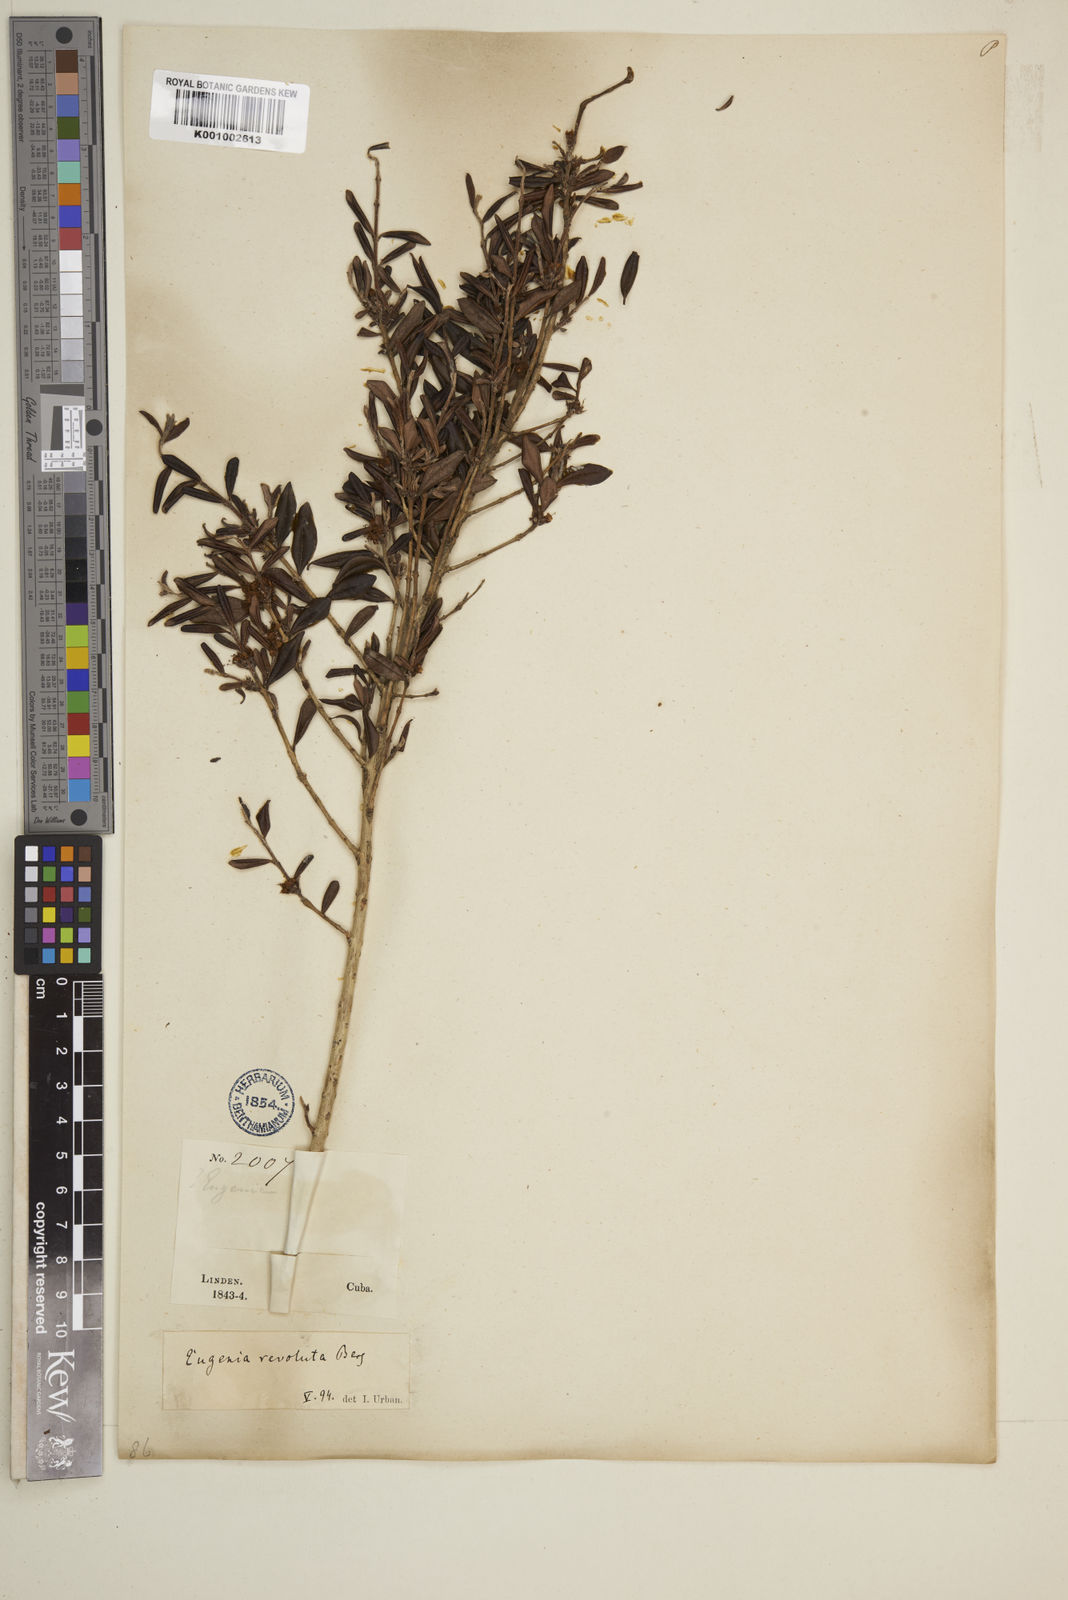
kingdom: Plantae
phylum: Tracheophyta
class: Magnoliopsida
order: Myrtales
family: Myrtaceae
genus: Eugenia
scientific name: Eugenia oxysepala
